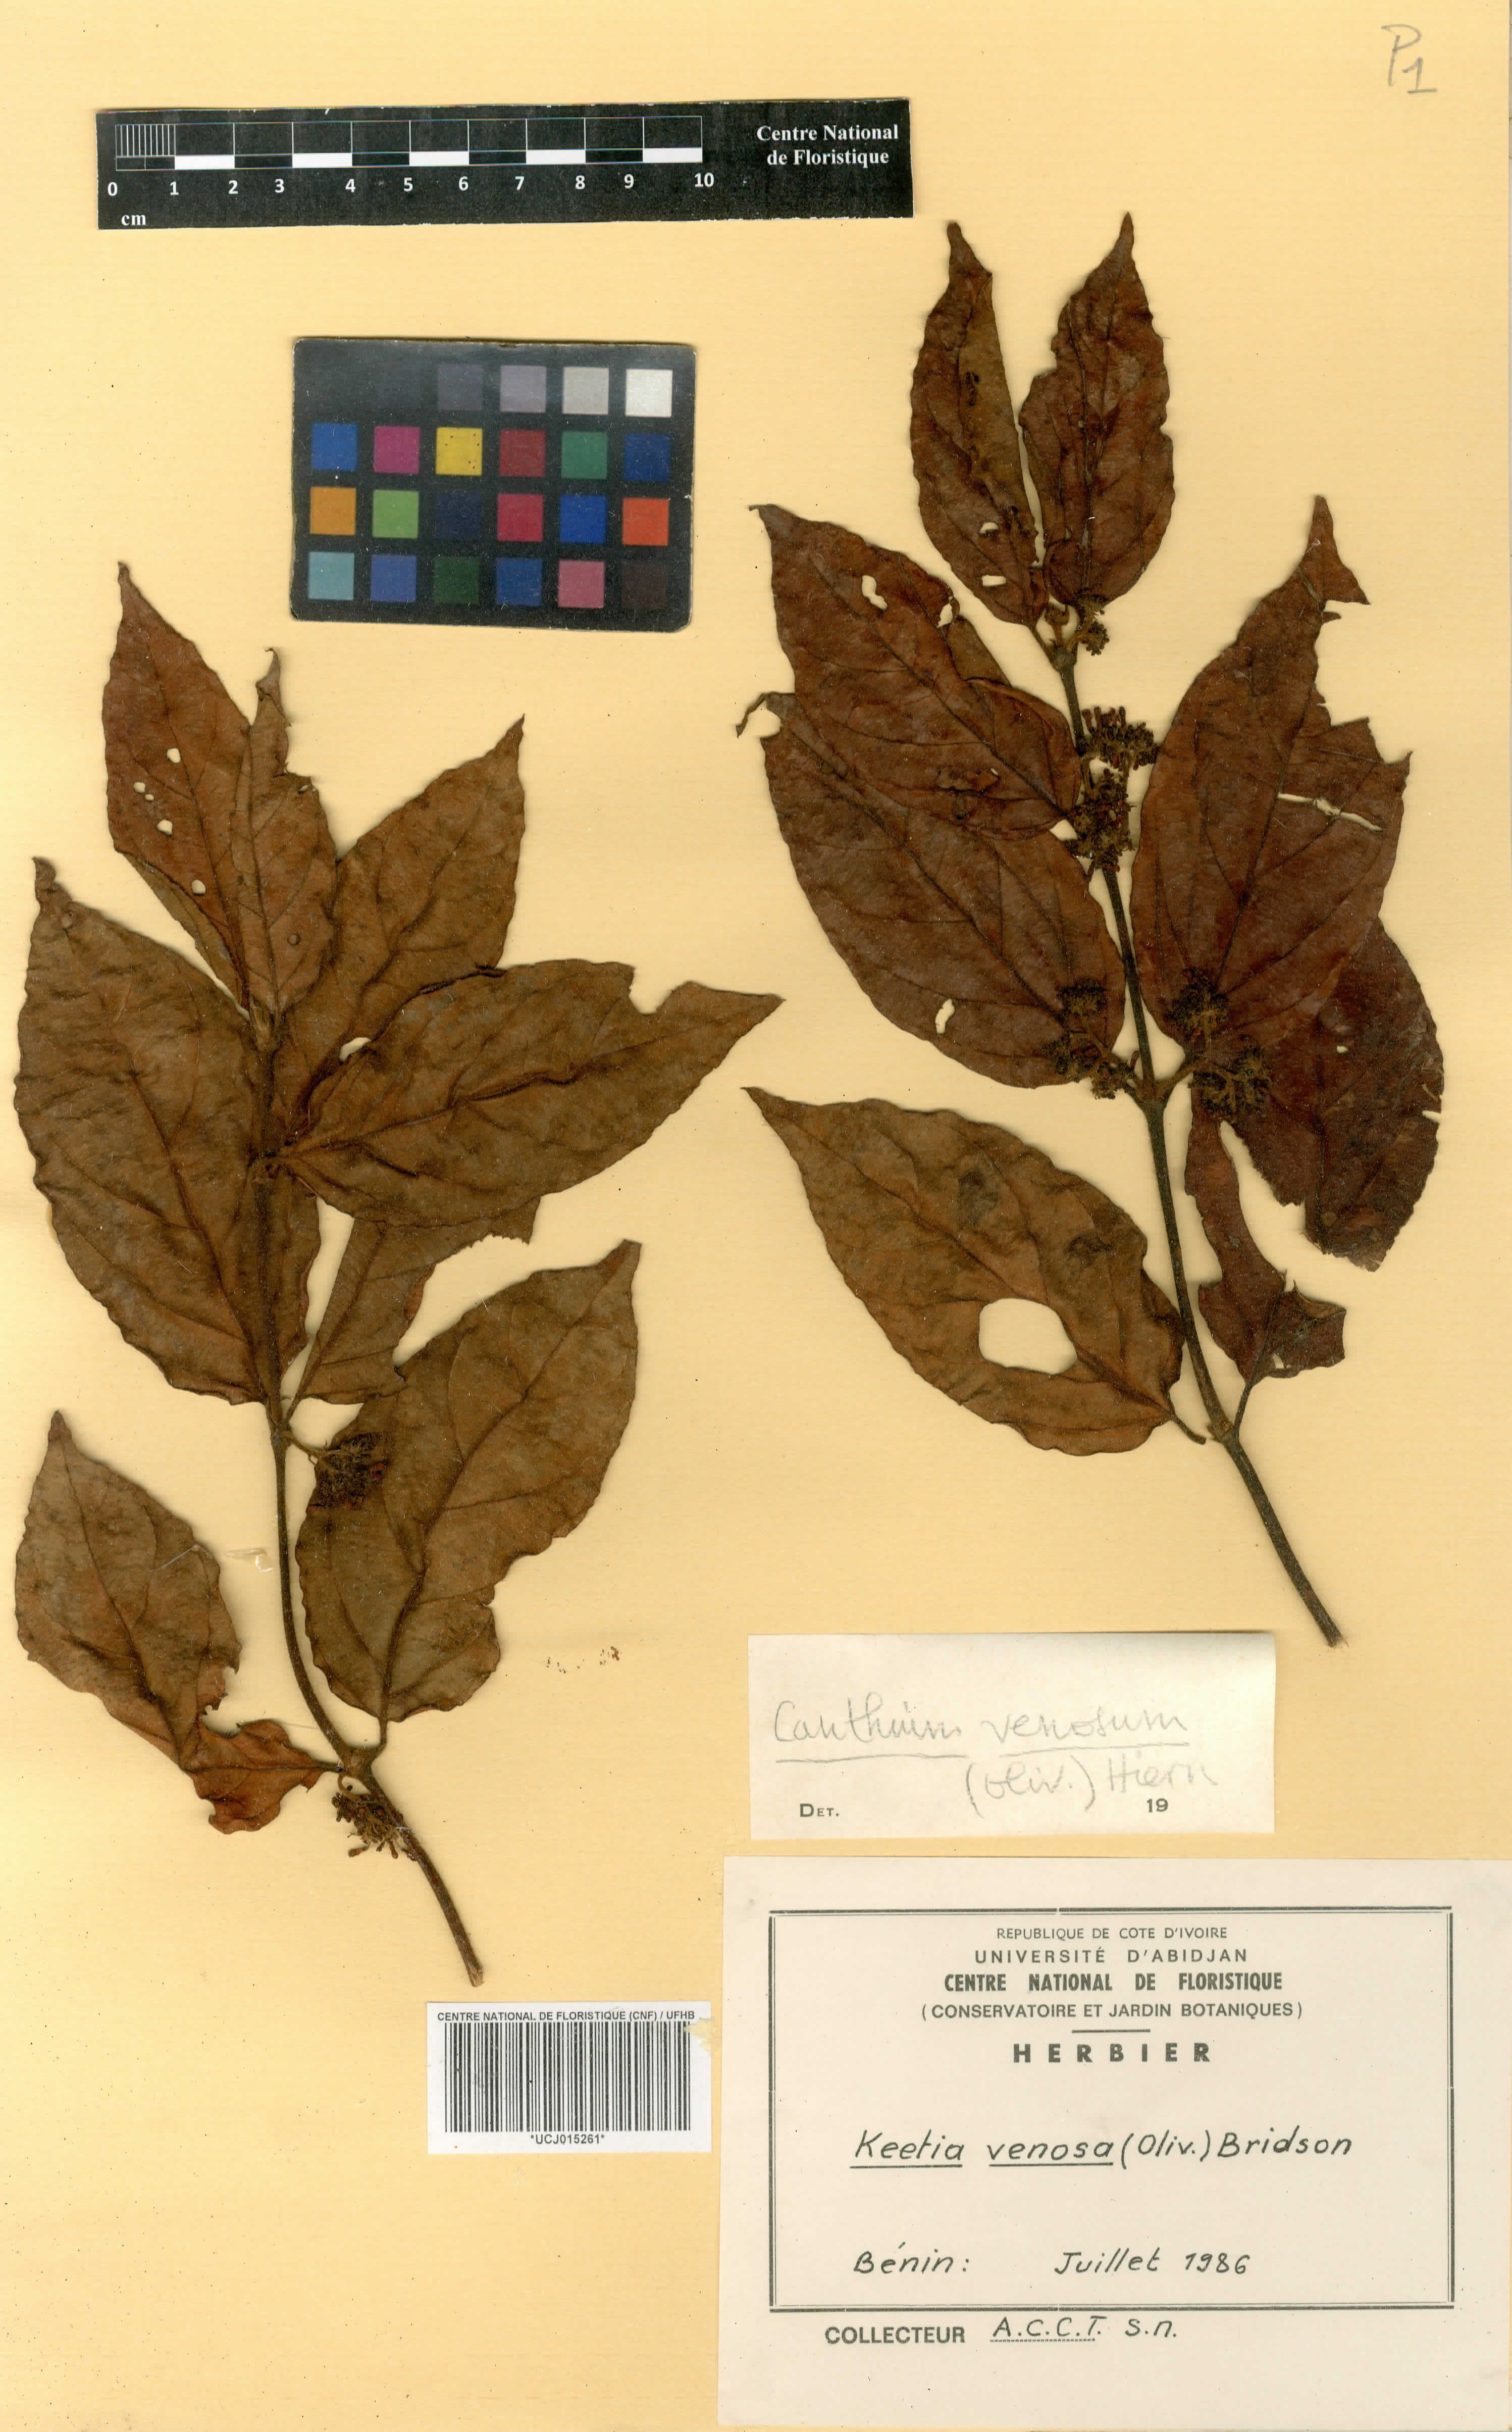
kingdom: Plantae
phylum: Tracheophyta
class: Magnoliopsida
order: Gentianales
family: Rubiaceae
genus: Keetia
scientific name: Keetia venosa
